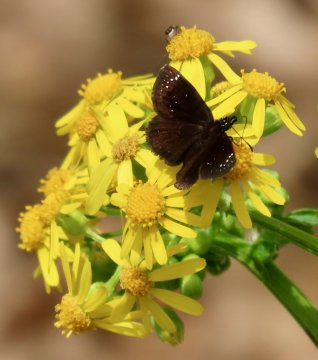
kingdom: Animalia
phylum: Arthropoda
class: Insecta
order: Lepidoptera
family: Hesperiidae
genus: Pholisora
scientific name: Pholisora catullus
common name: Common Sootywing
